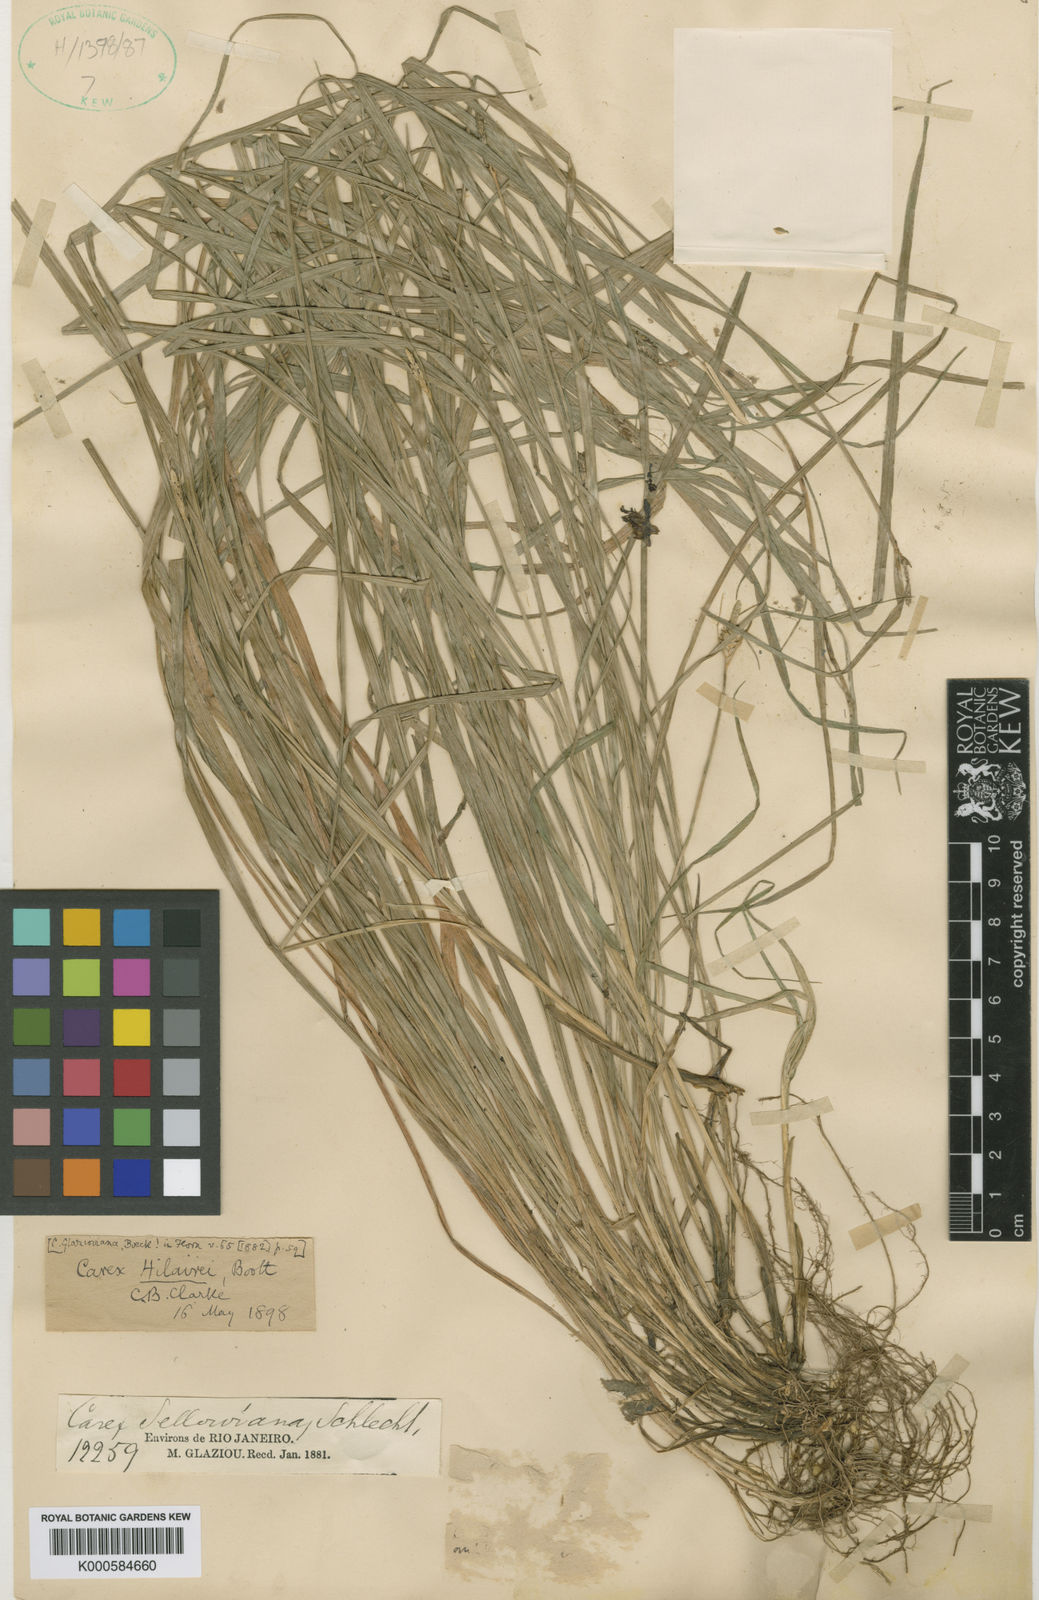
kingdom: Plantae
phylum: Tracheophyta
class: Liliopsida
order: Poales
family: Cyperaceae
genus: Carex
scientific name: Carex hilairei
